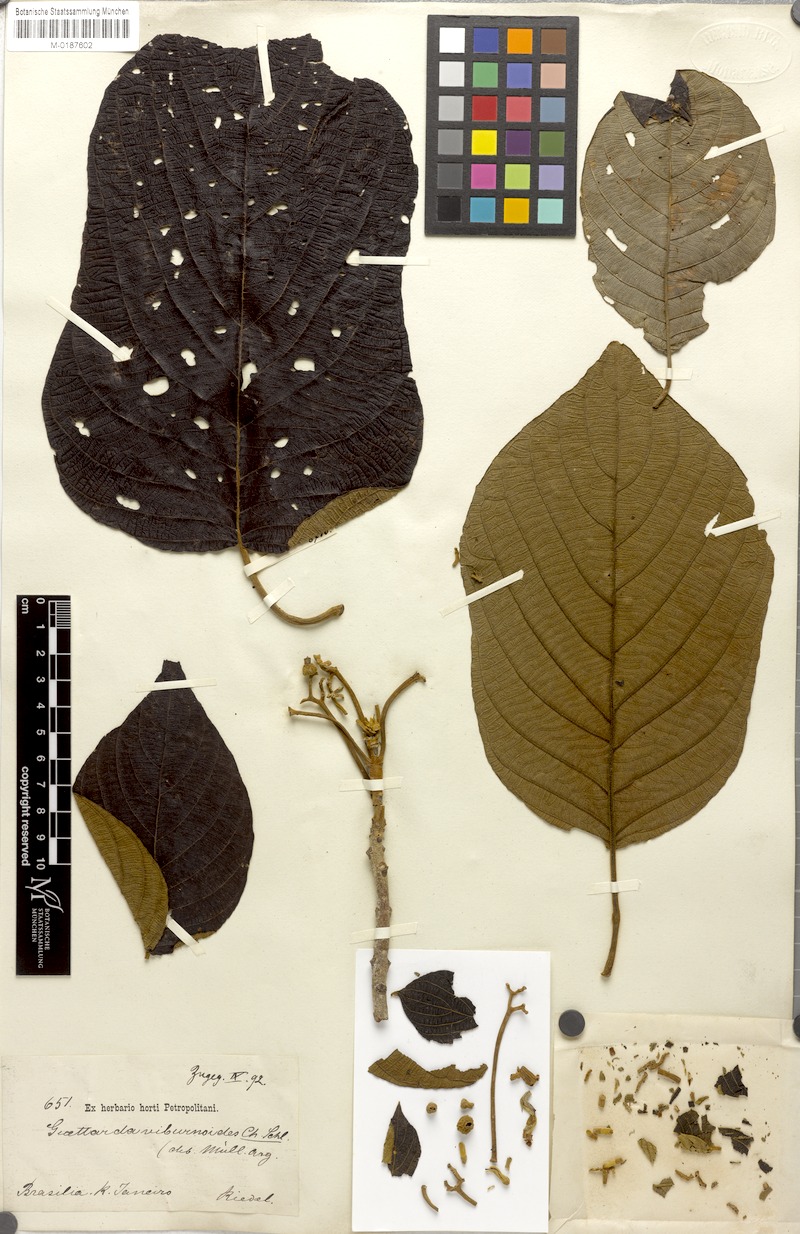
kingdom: Plantae
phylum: Tracheophyta
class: Magnoliopsida
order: Gentianales
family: Rubiaceae
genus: Guettarda
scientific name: Guettarda viburnoides
